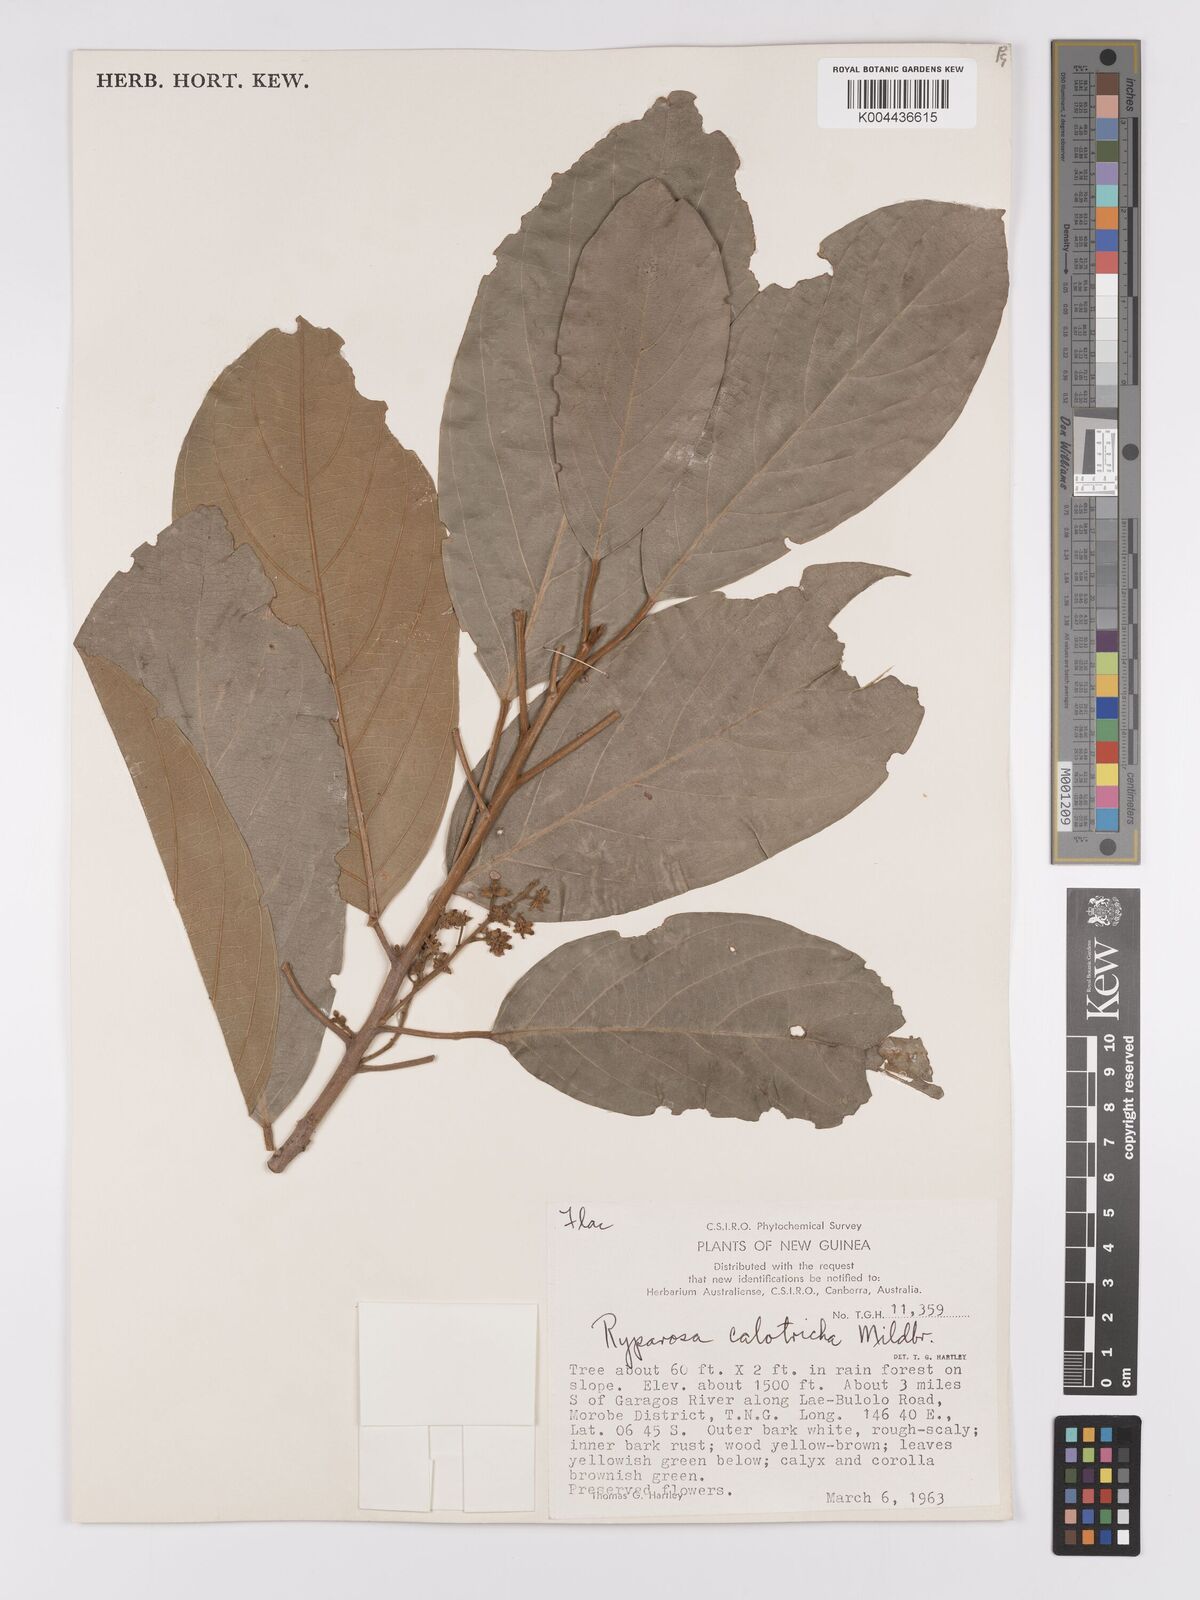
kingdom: Plantae
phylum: Tracheophyta
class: Magnoliopsida
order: Malpighiales
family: Achariaceae
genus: Ryparosa
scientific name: Ryparosa calotricha
